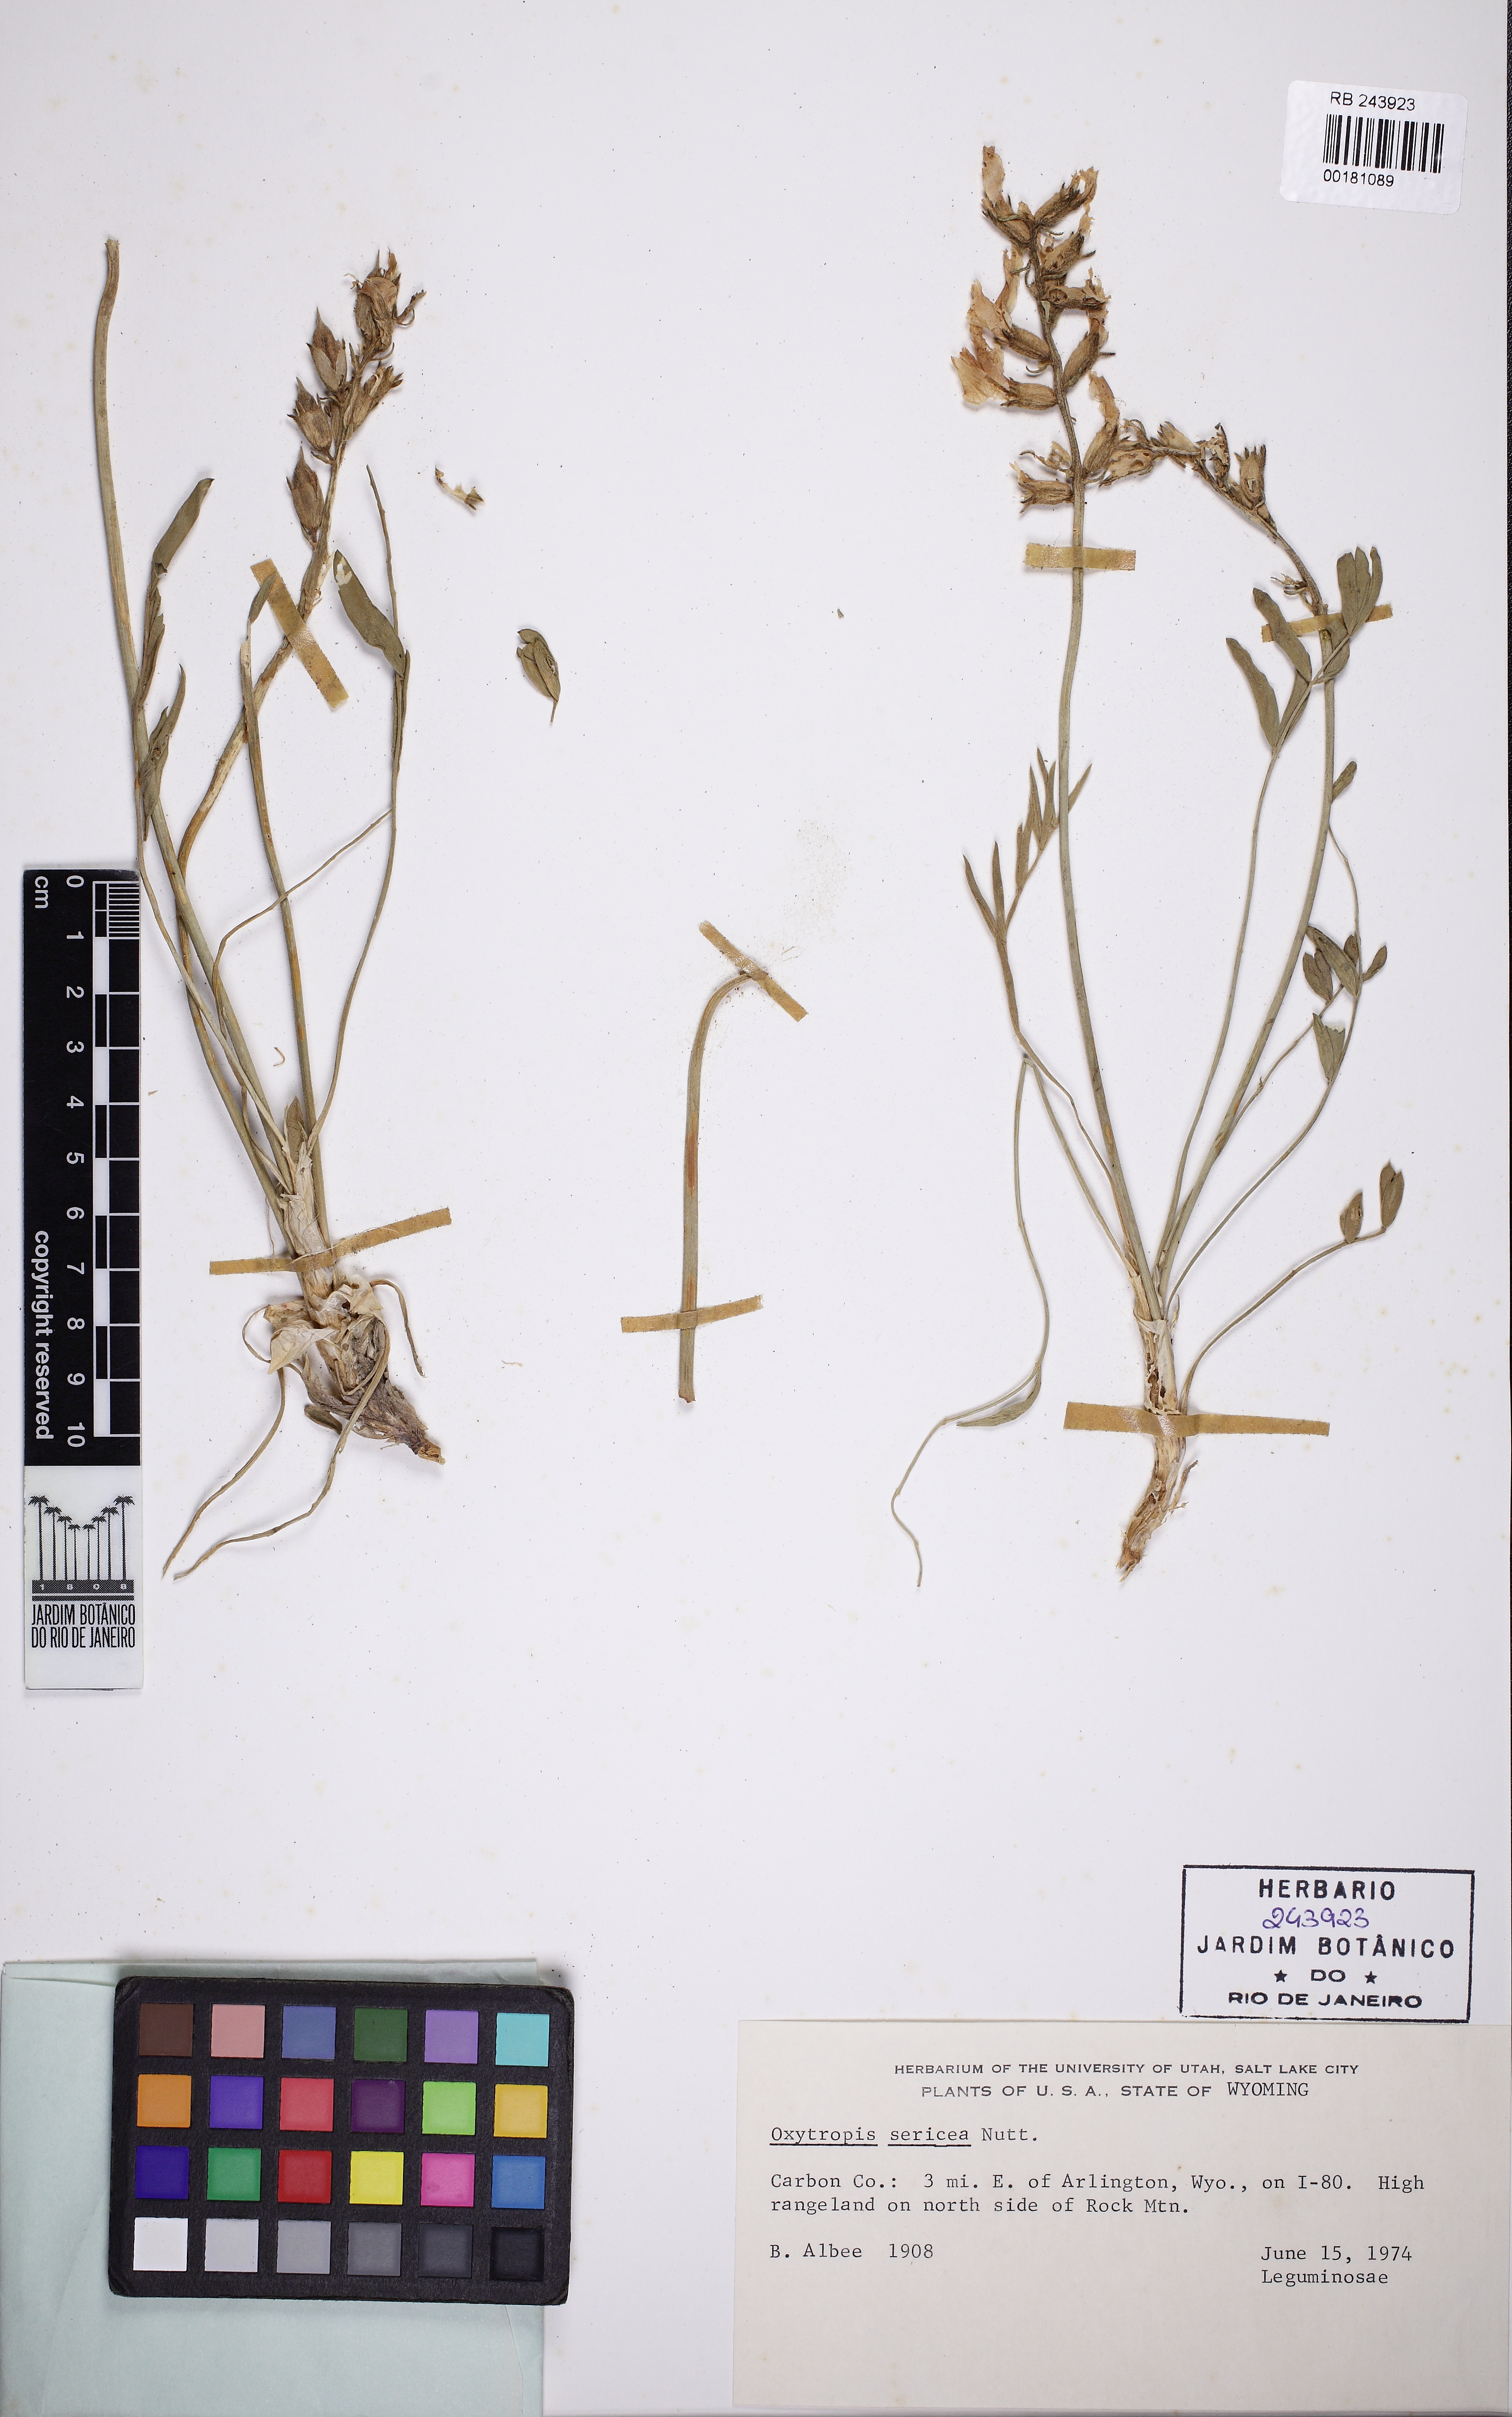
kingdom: Plantae
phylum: Tracheophyta
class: Magnoliopsida
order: Fabales
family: Fabaceae
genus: Oxytropis
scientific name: Oxytropis sericea
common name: Silky locoweed
